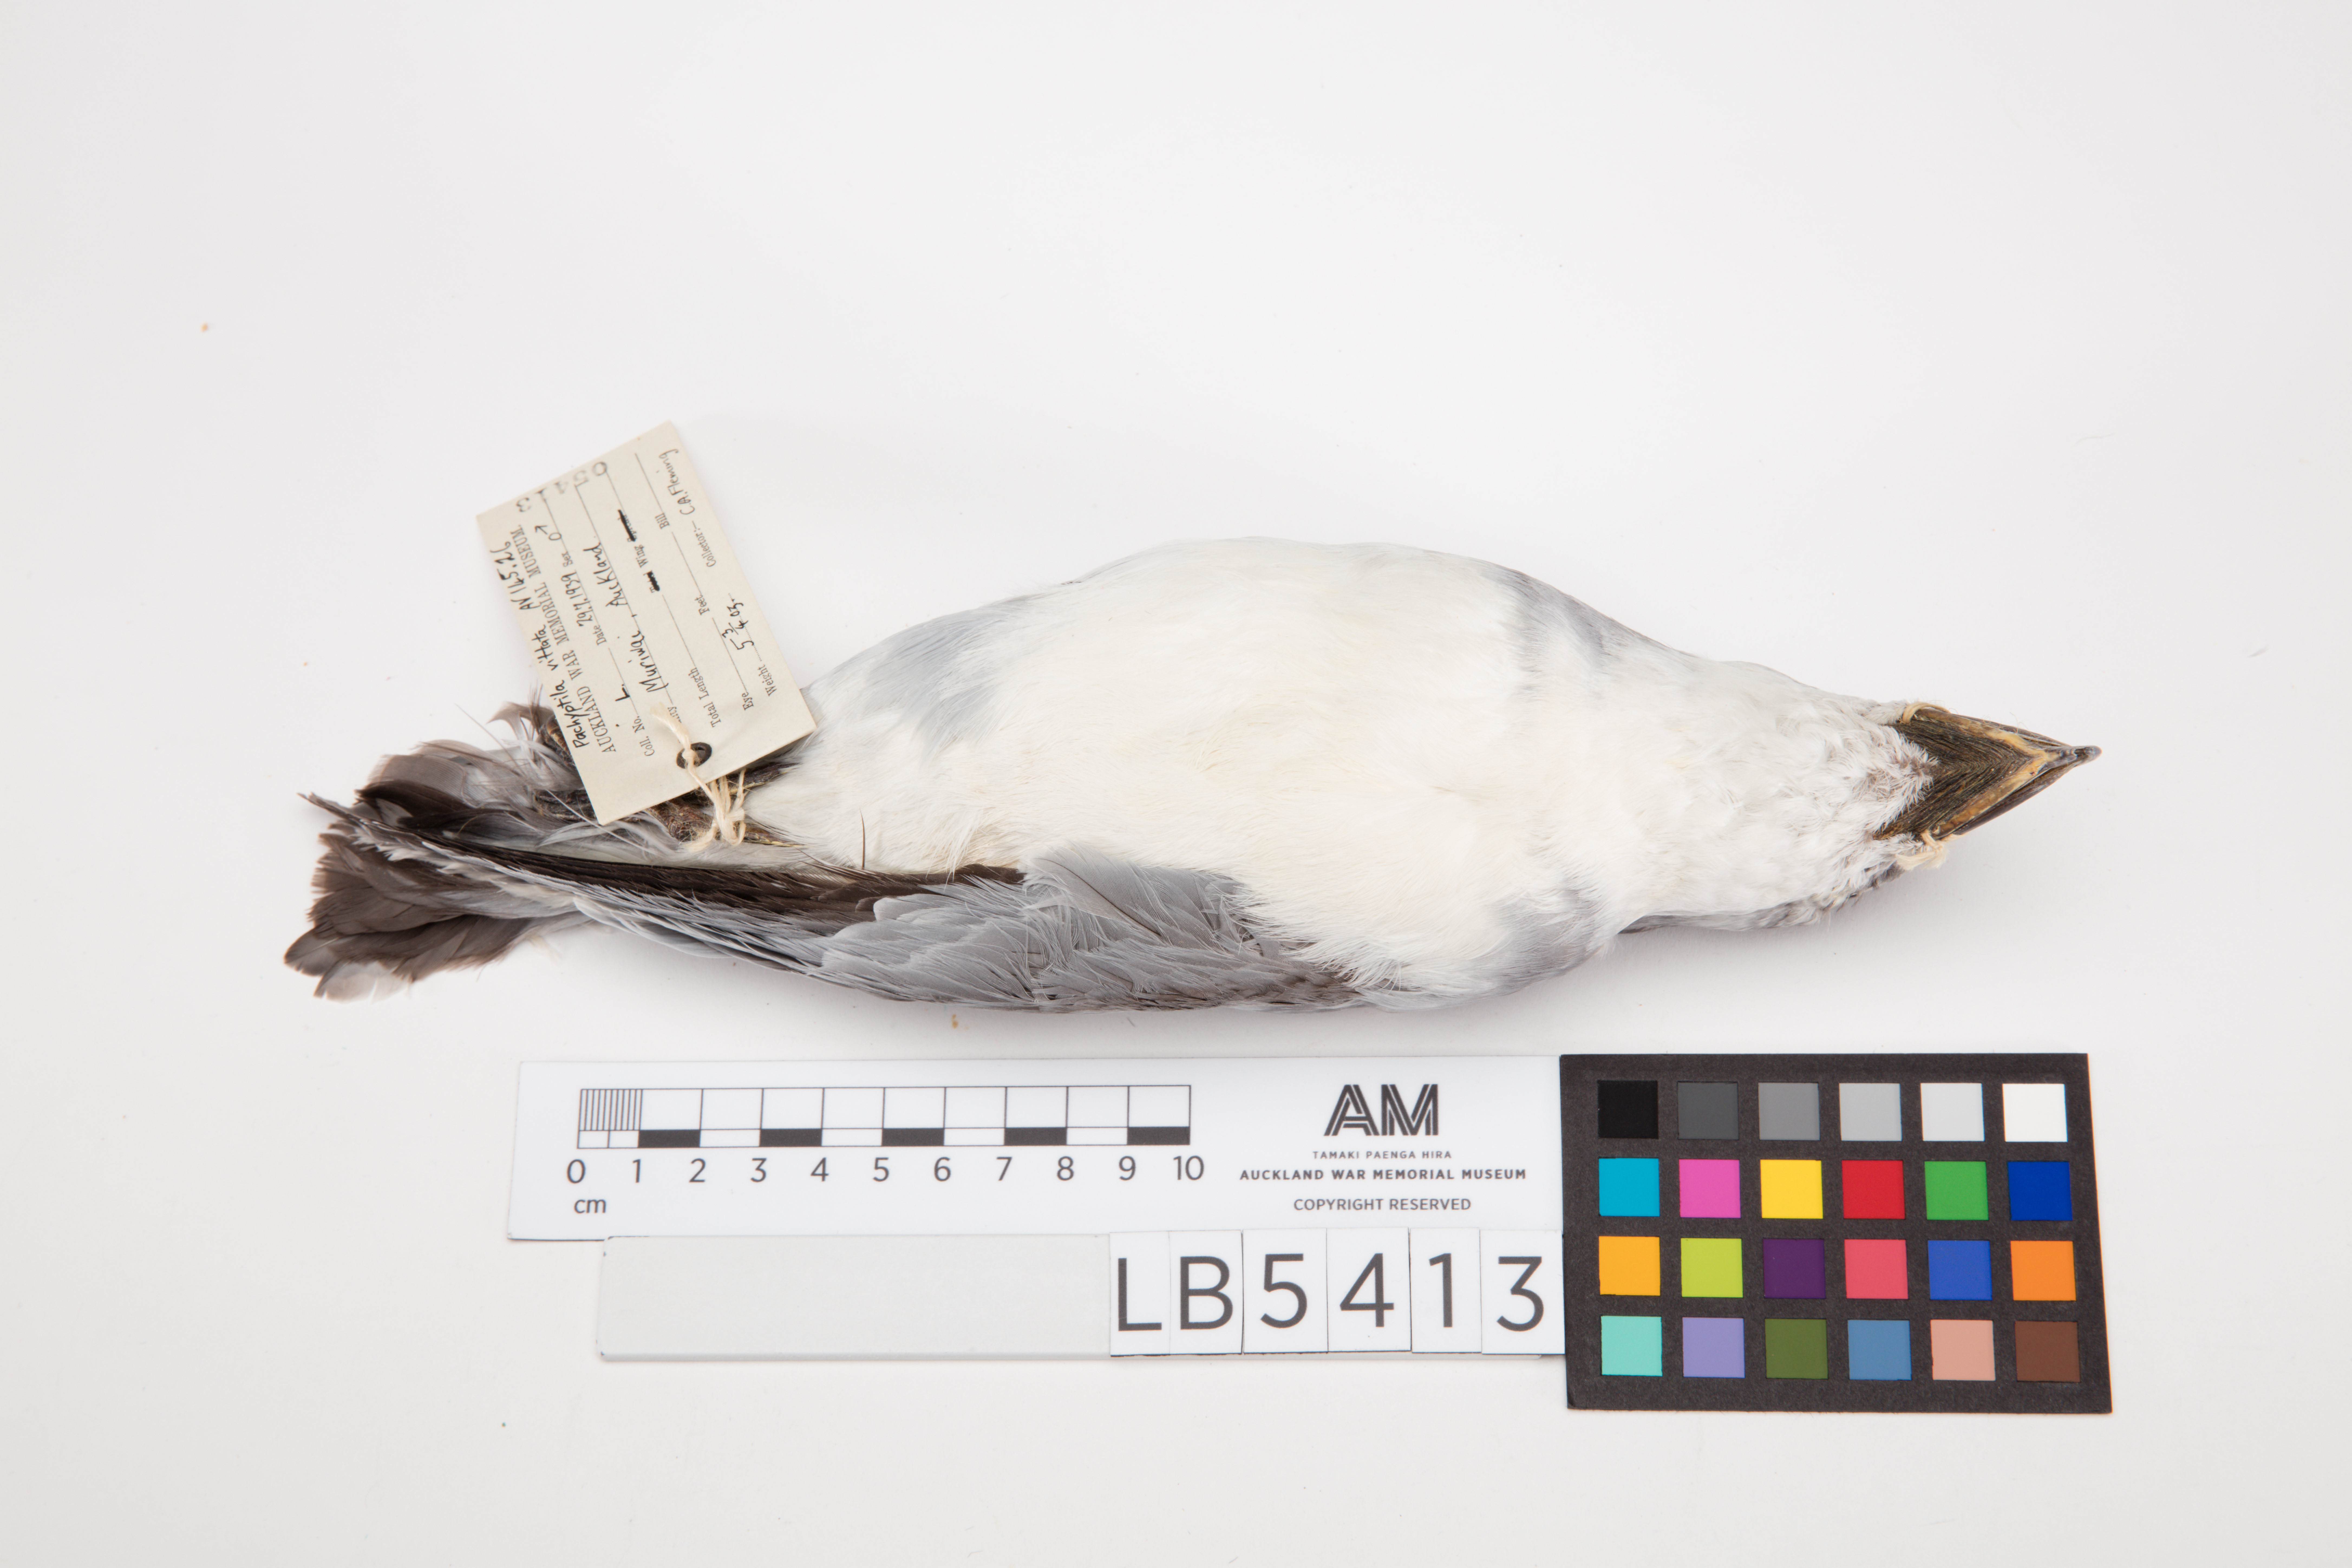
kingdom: Animalia
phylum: Chordata
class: Aves
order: Procellariiformes
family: Procellariidae
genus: Pachyptila
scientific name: Pachyptila vittata
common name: Broad-billed prion
